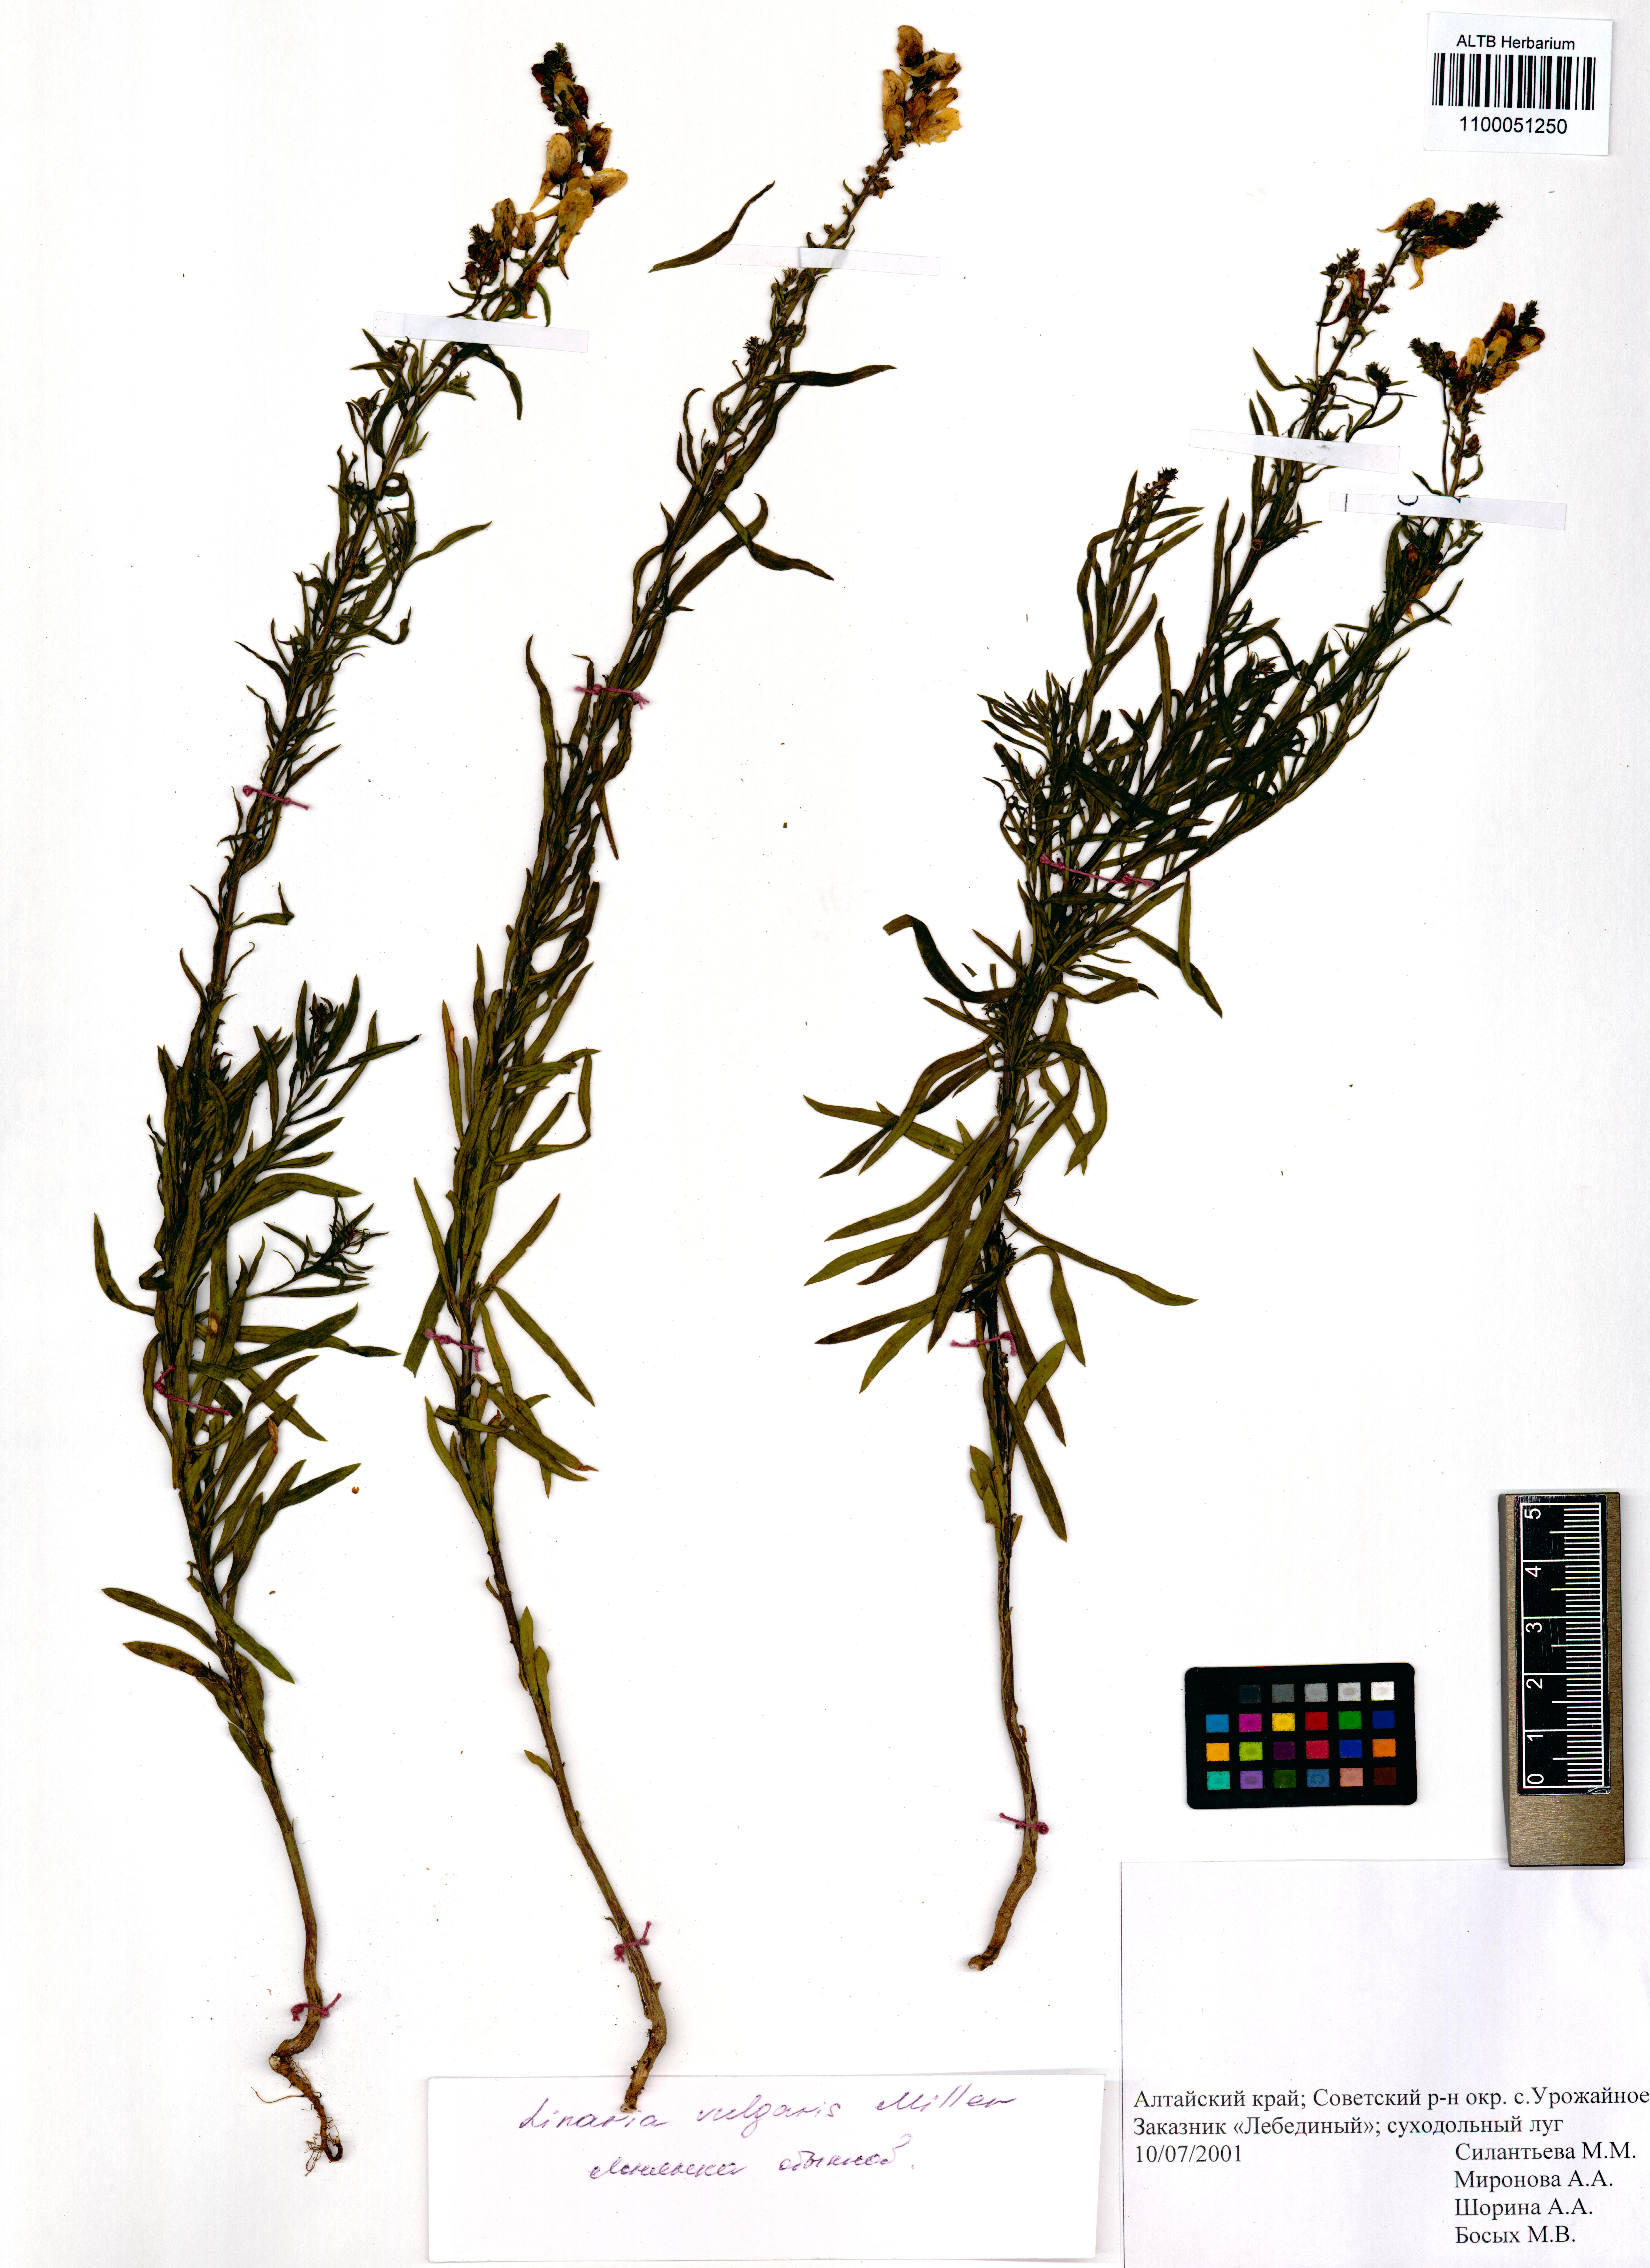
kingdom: Plantae
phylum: Tracheophyta
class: Magnoliopsida
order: Lamiales
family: Plantaginaceae
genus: Linaria
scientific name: Linaria vulgaris
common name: Butter and eggs
